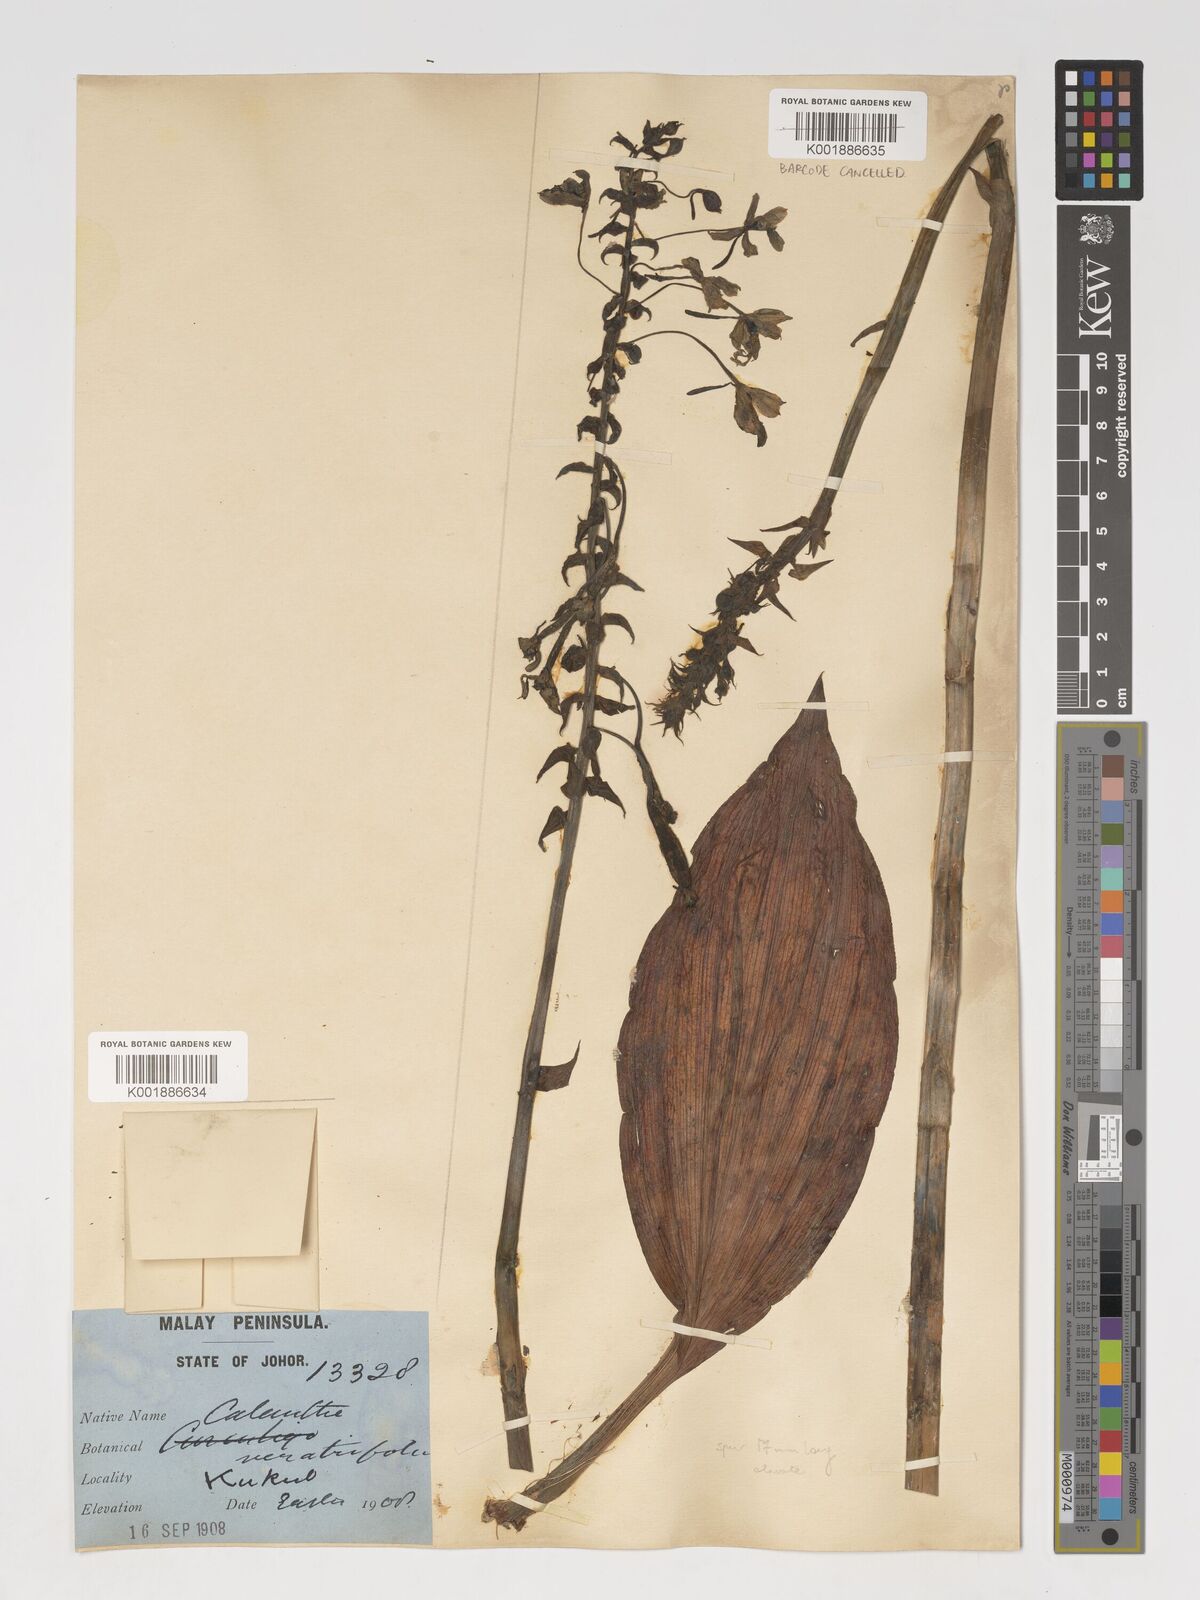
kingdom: Plantae
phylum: Tracheophyta
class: Liliopsida
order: Asparagales
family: Orchidaceae
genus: Calanthe
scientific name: Calanthe triplicata
